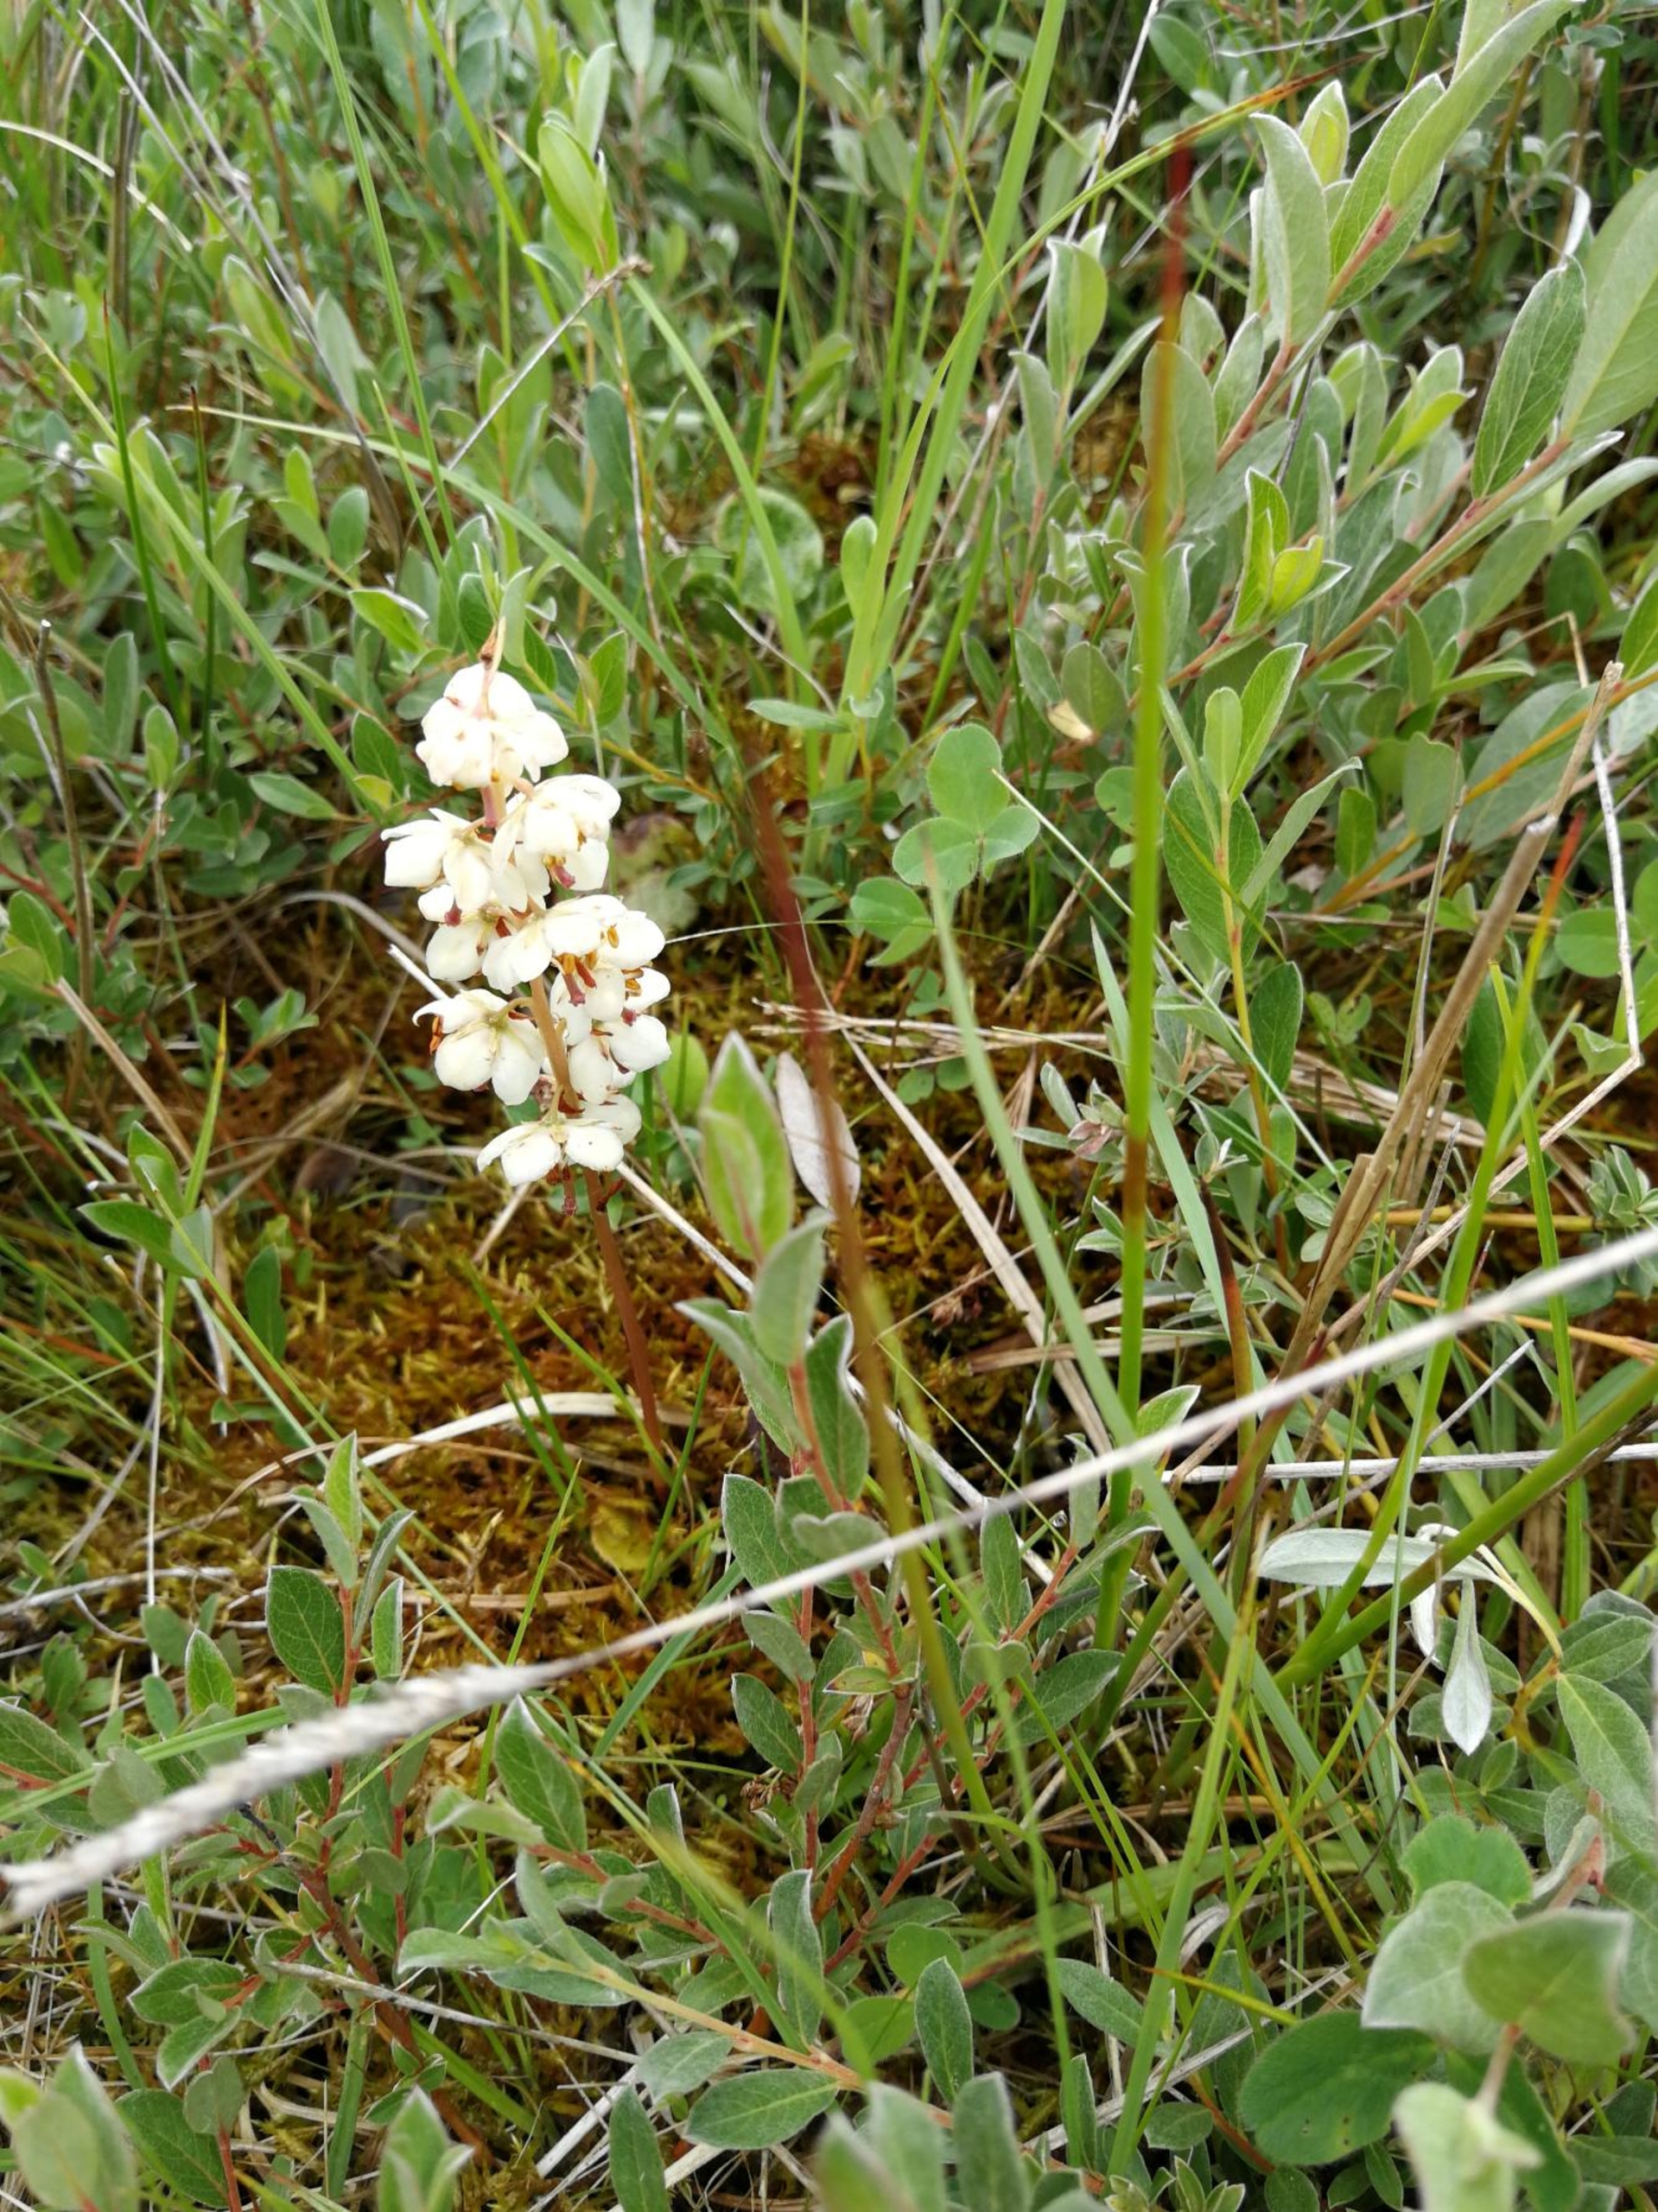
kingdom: Plantae
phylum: Tracheophyta
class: Magnoliopsida
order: Ericales
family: Ericaceae
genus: Pyrola
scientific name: Pyrola rotundifolia
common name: Mose-vintergrøn
